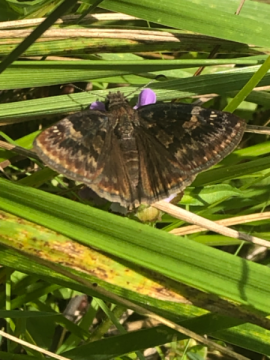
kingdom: Animalia
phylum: Arthropoda
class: Insecta
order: Lepidoptera
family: Hesperiidae
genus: Gesta
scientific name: Gesta
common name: Wild Indigo Duskywing
